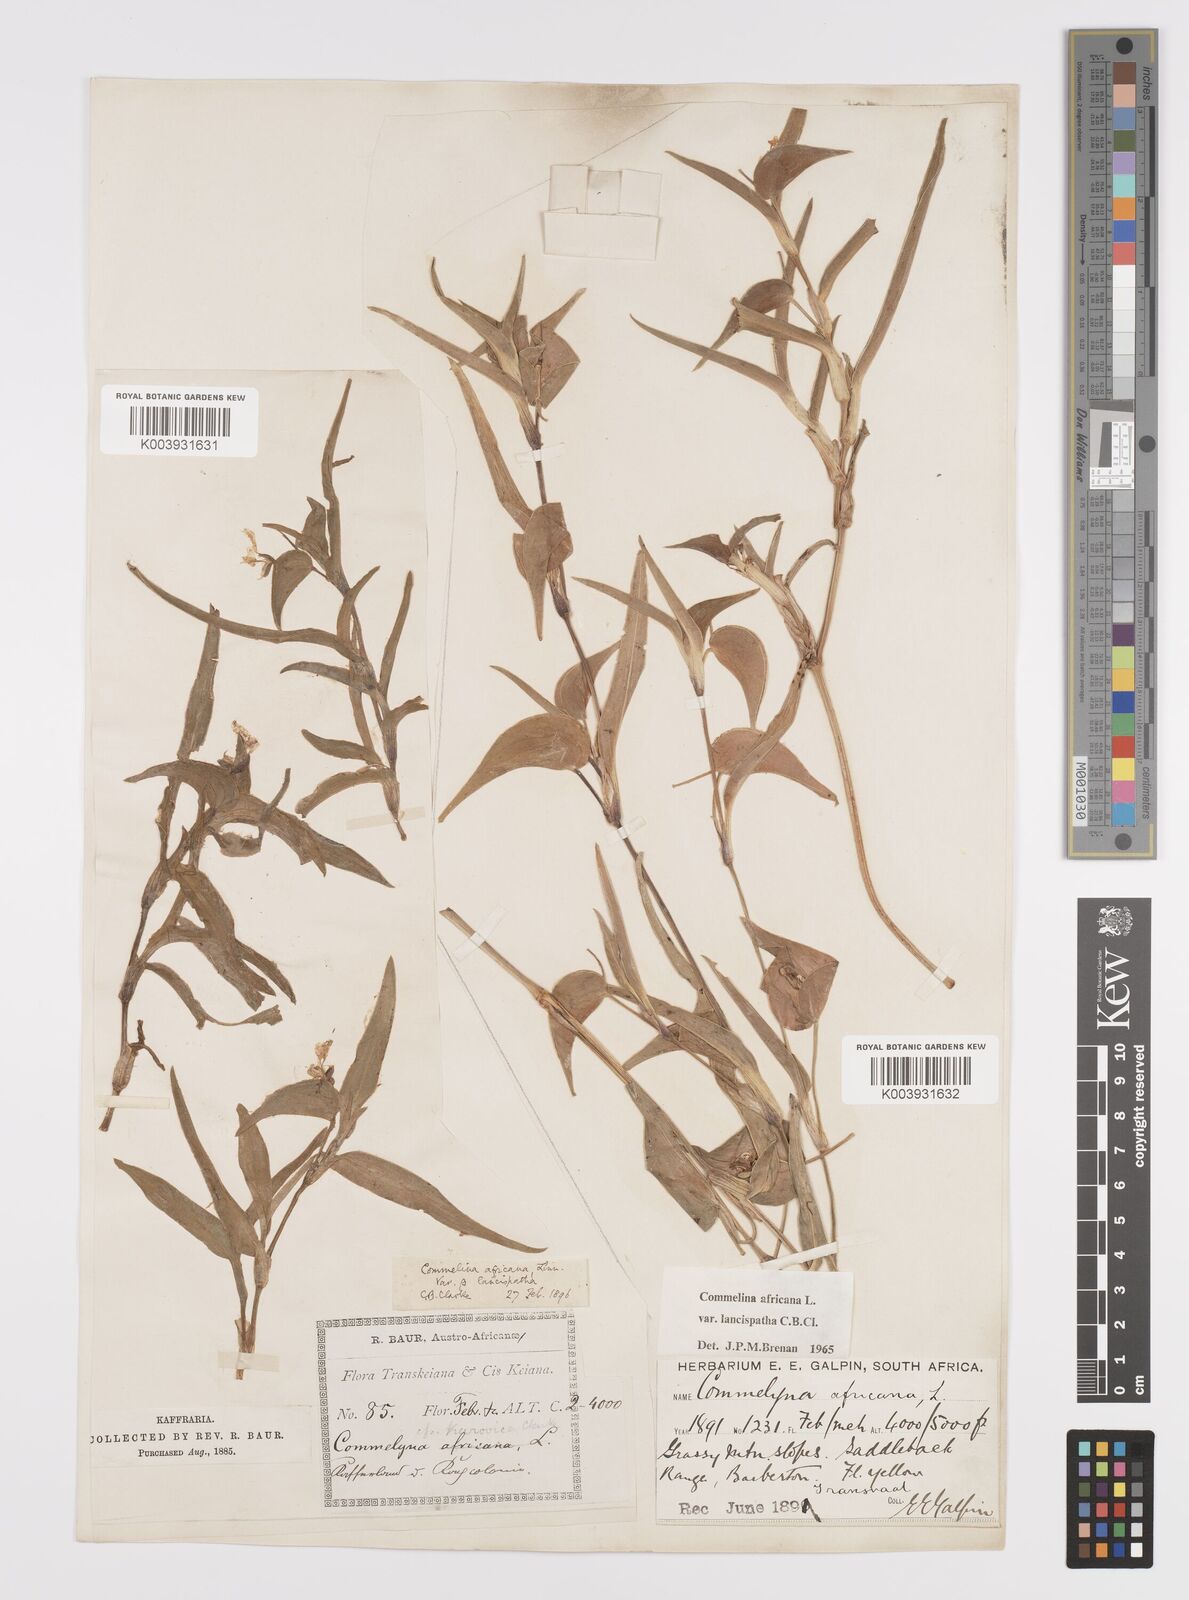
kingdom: Plantae
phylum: Tracheophyta
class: Liliopsida
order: Commelinales
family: Commelinaceae
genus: Commelina
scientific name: Commelina africana
